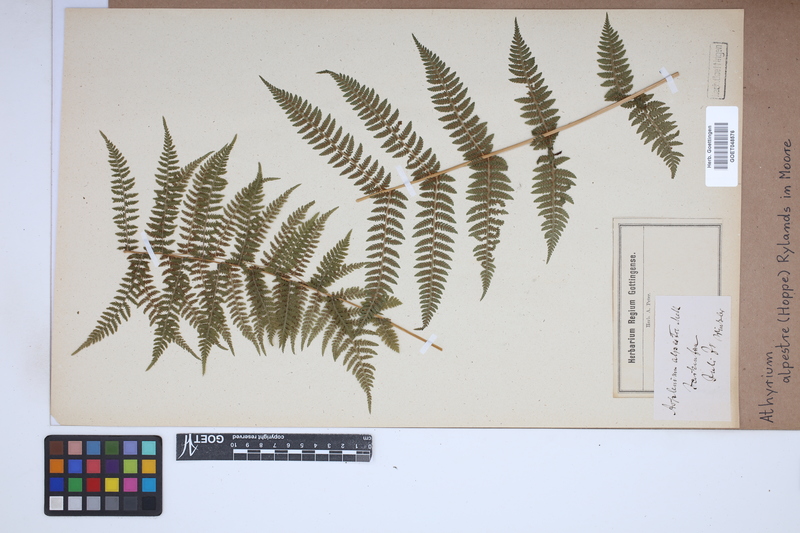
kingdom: Plantae
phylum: Tracheophyta
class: Polypodiopsida
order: Polypodiales
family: Athyriaceae
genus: Pseudathyrium
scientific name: Pseudathyrium alpestre
